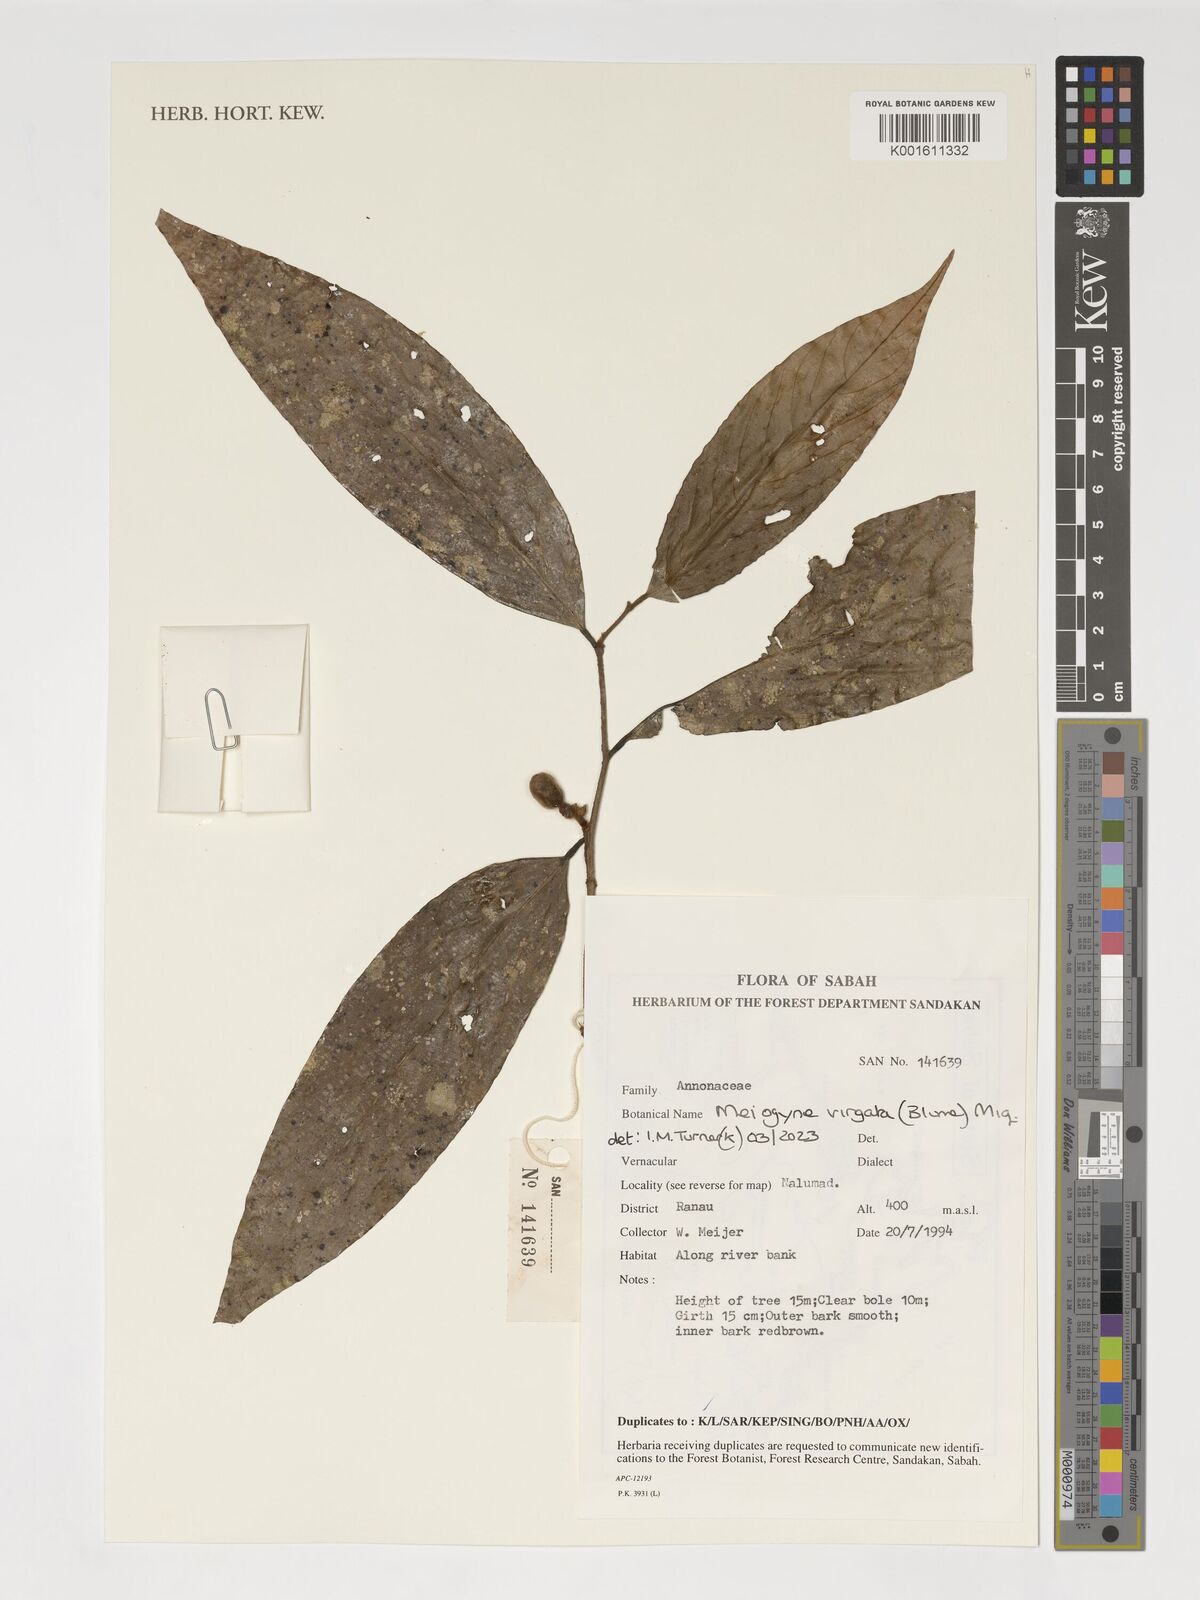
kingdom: Plantae
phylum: Tracheophyta
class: Magnoliopsida
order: Magnoliales
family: Annonaceae
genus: Meiogyne
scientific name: Meiogyne virgata
